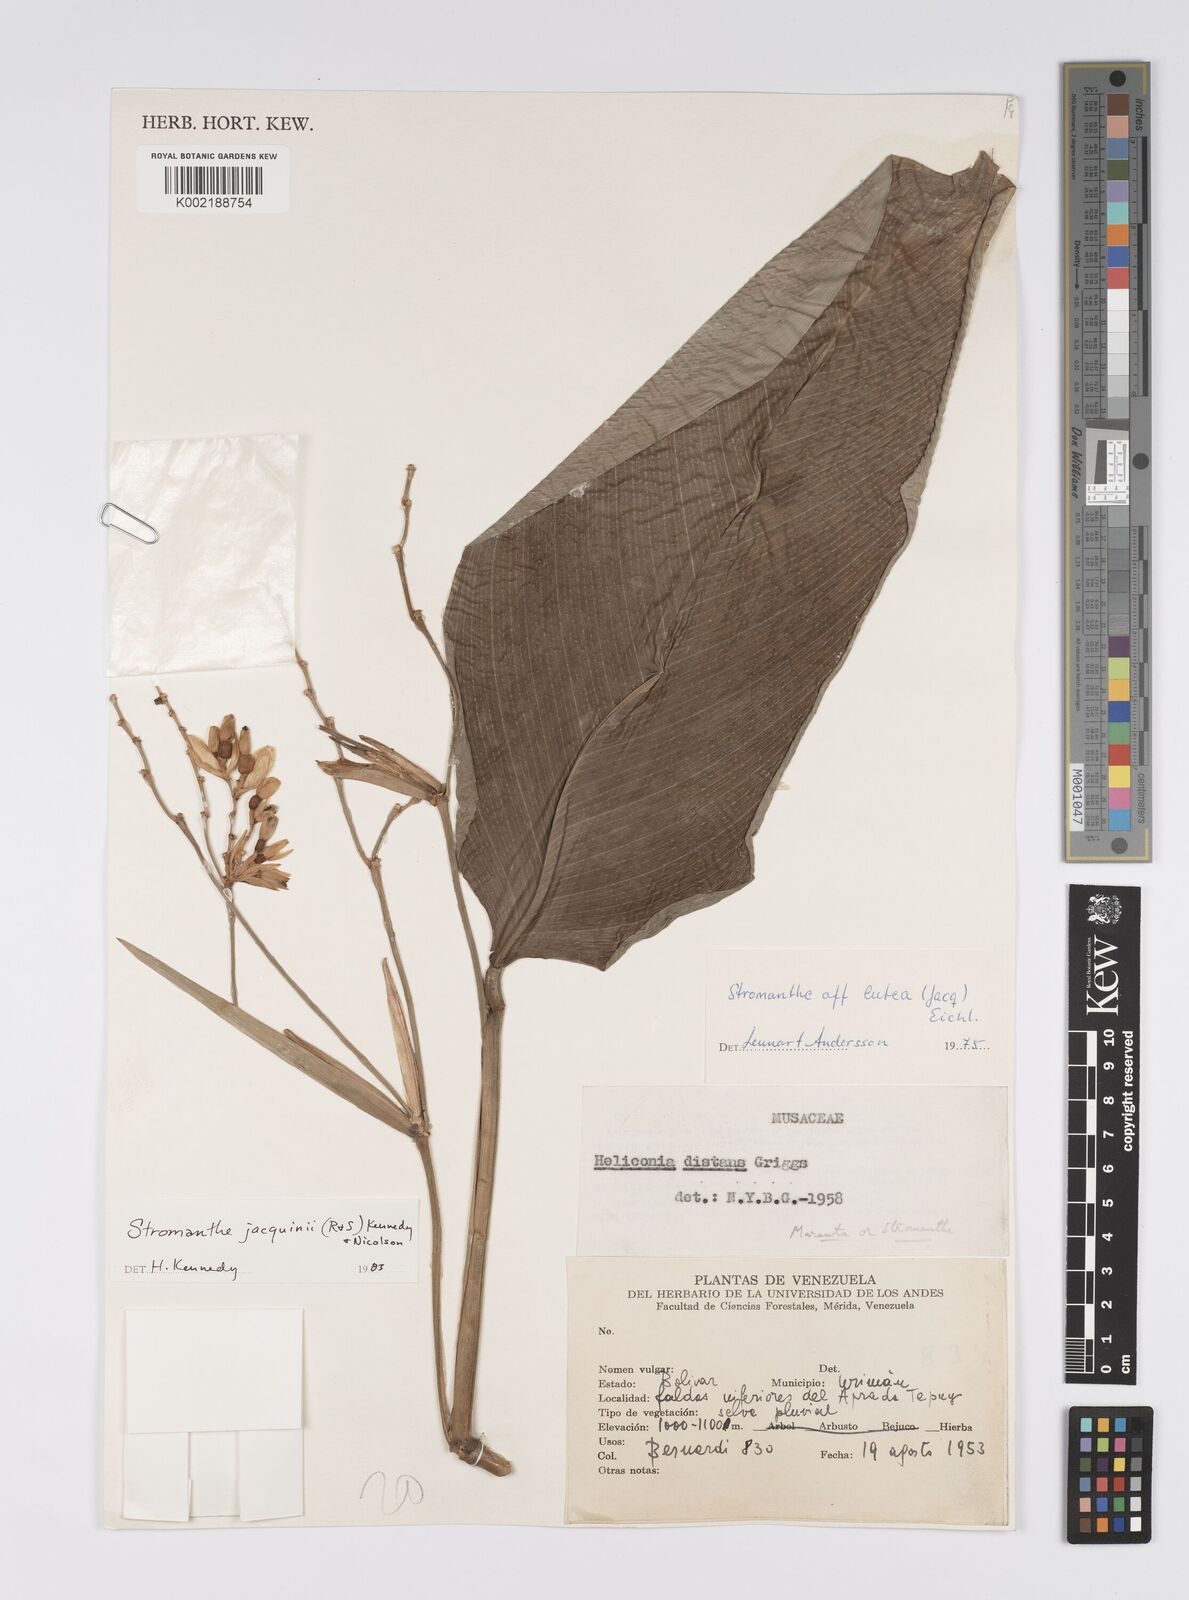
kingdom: Plantae
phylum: Tracheophyta
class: Liliopsida
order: Zingiberales
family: Marantaceae
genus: Stromanthe
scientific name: Stromanthe jacquinii
